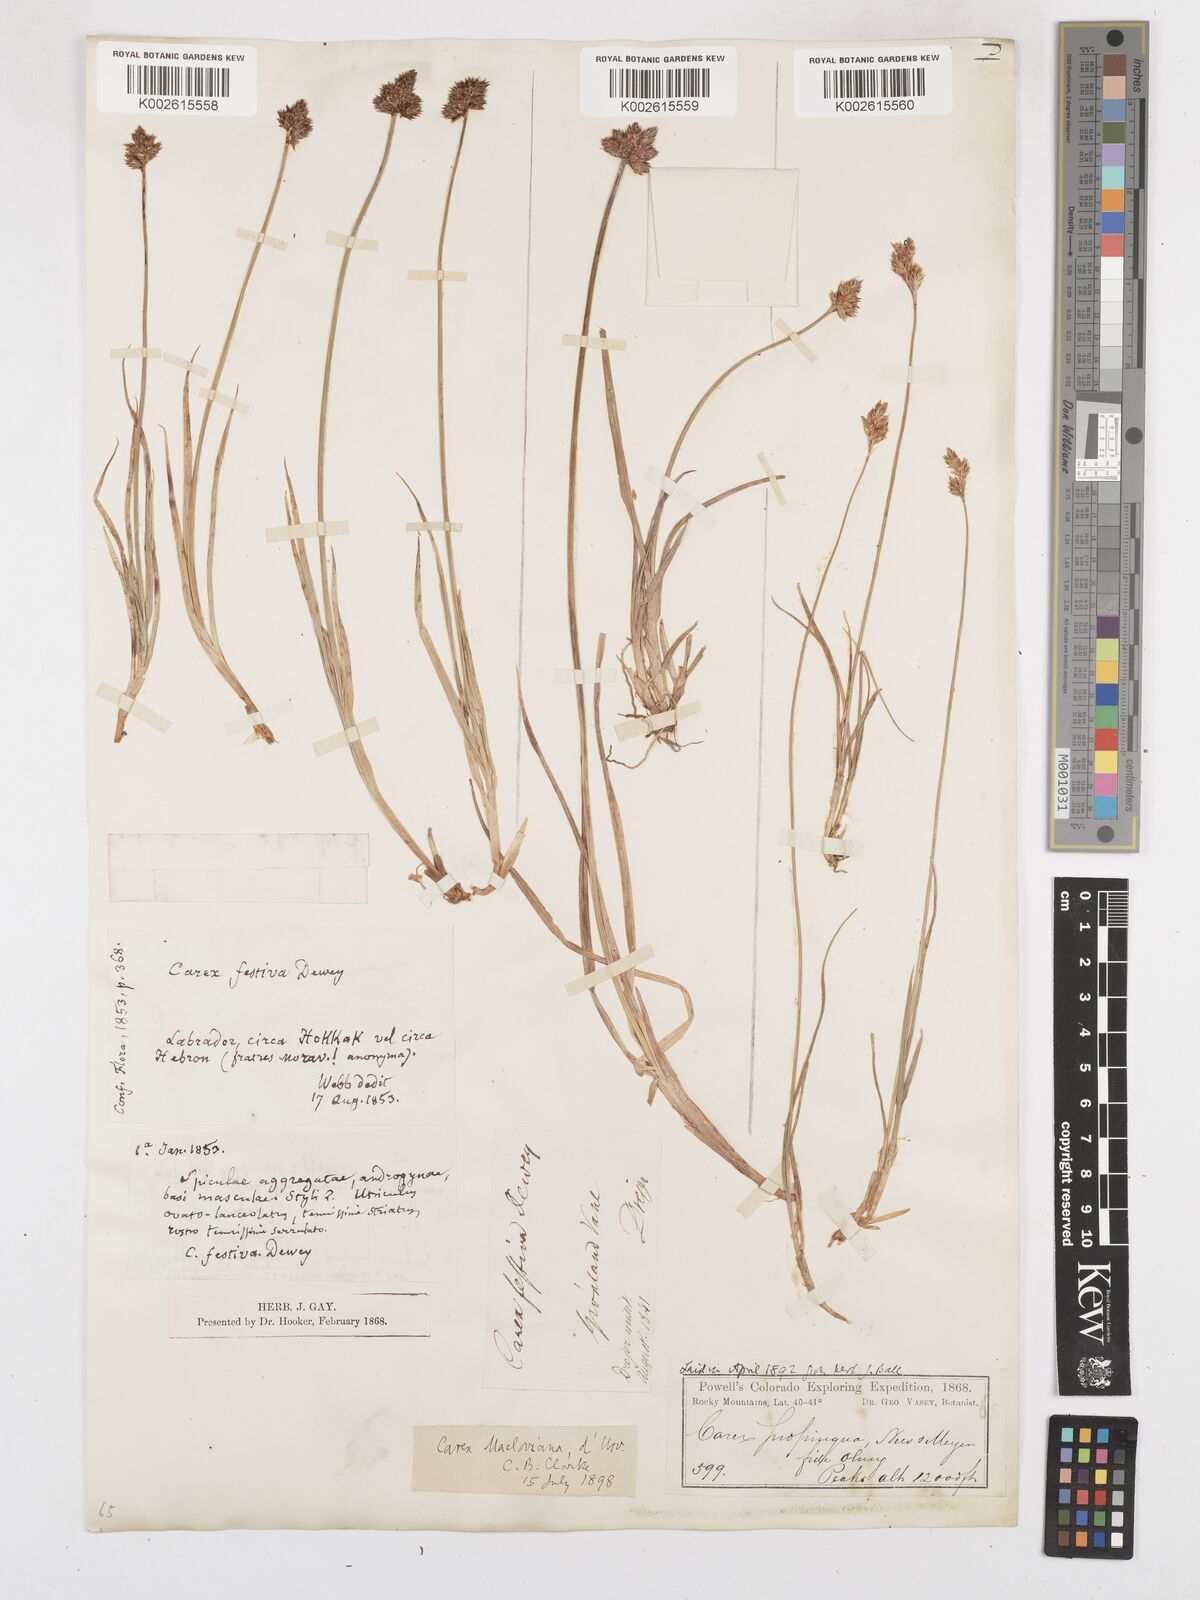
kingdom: Plantae
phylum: Tracheophyta
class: Liliopsida
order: Poales
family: Cyperaceae
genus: Carex
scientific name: Carex macloviana
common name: Falkland island sedge
